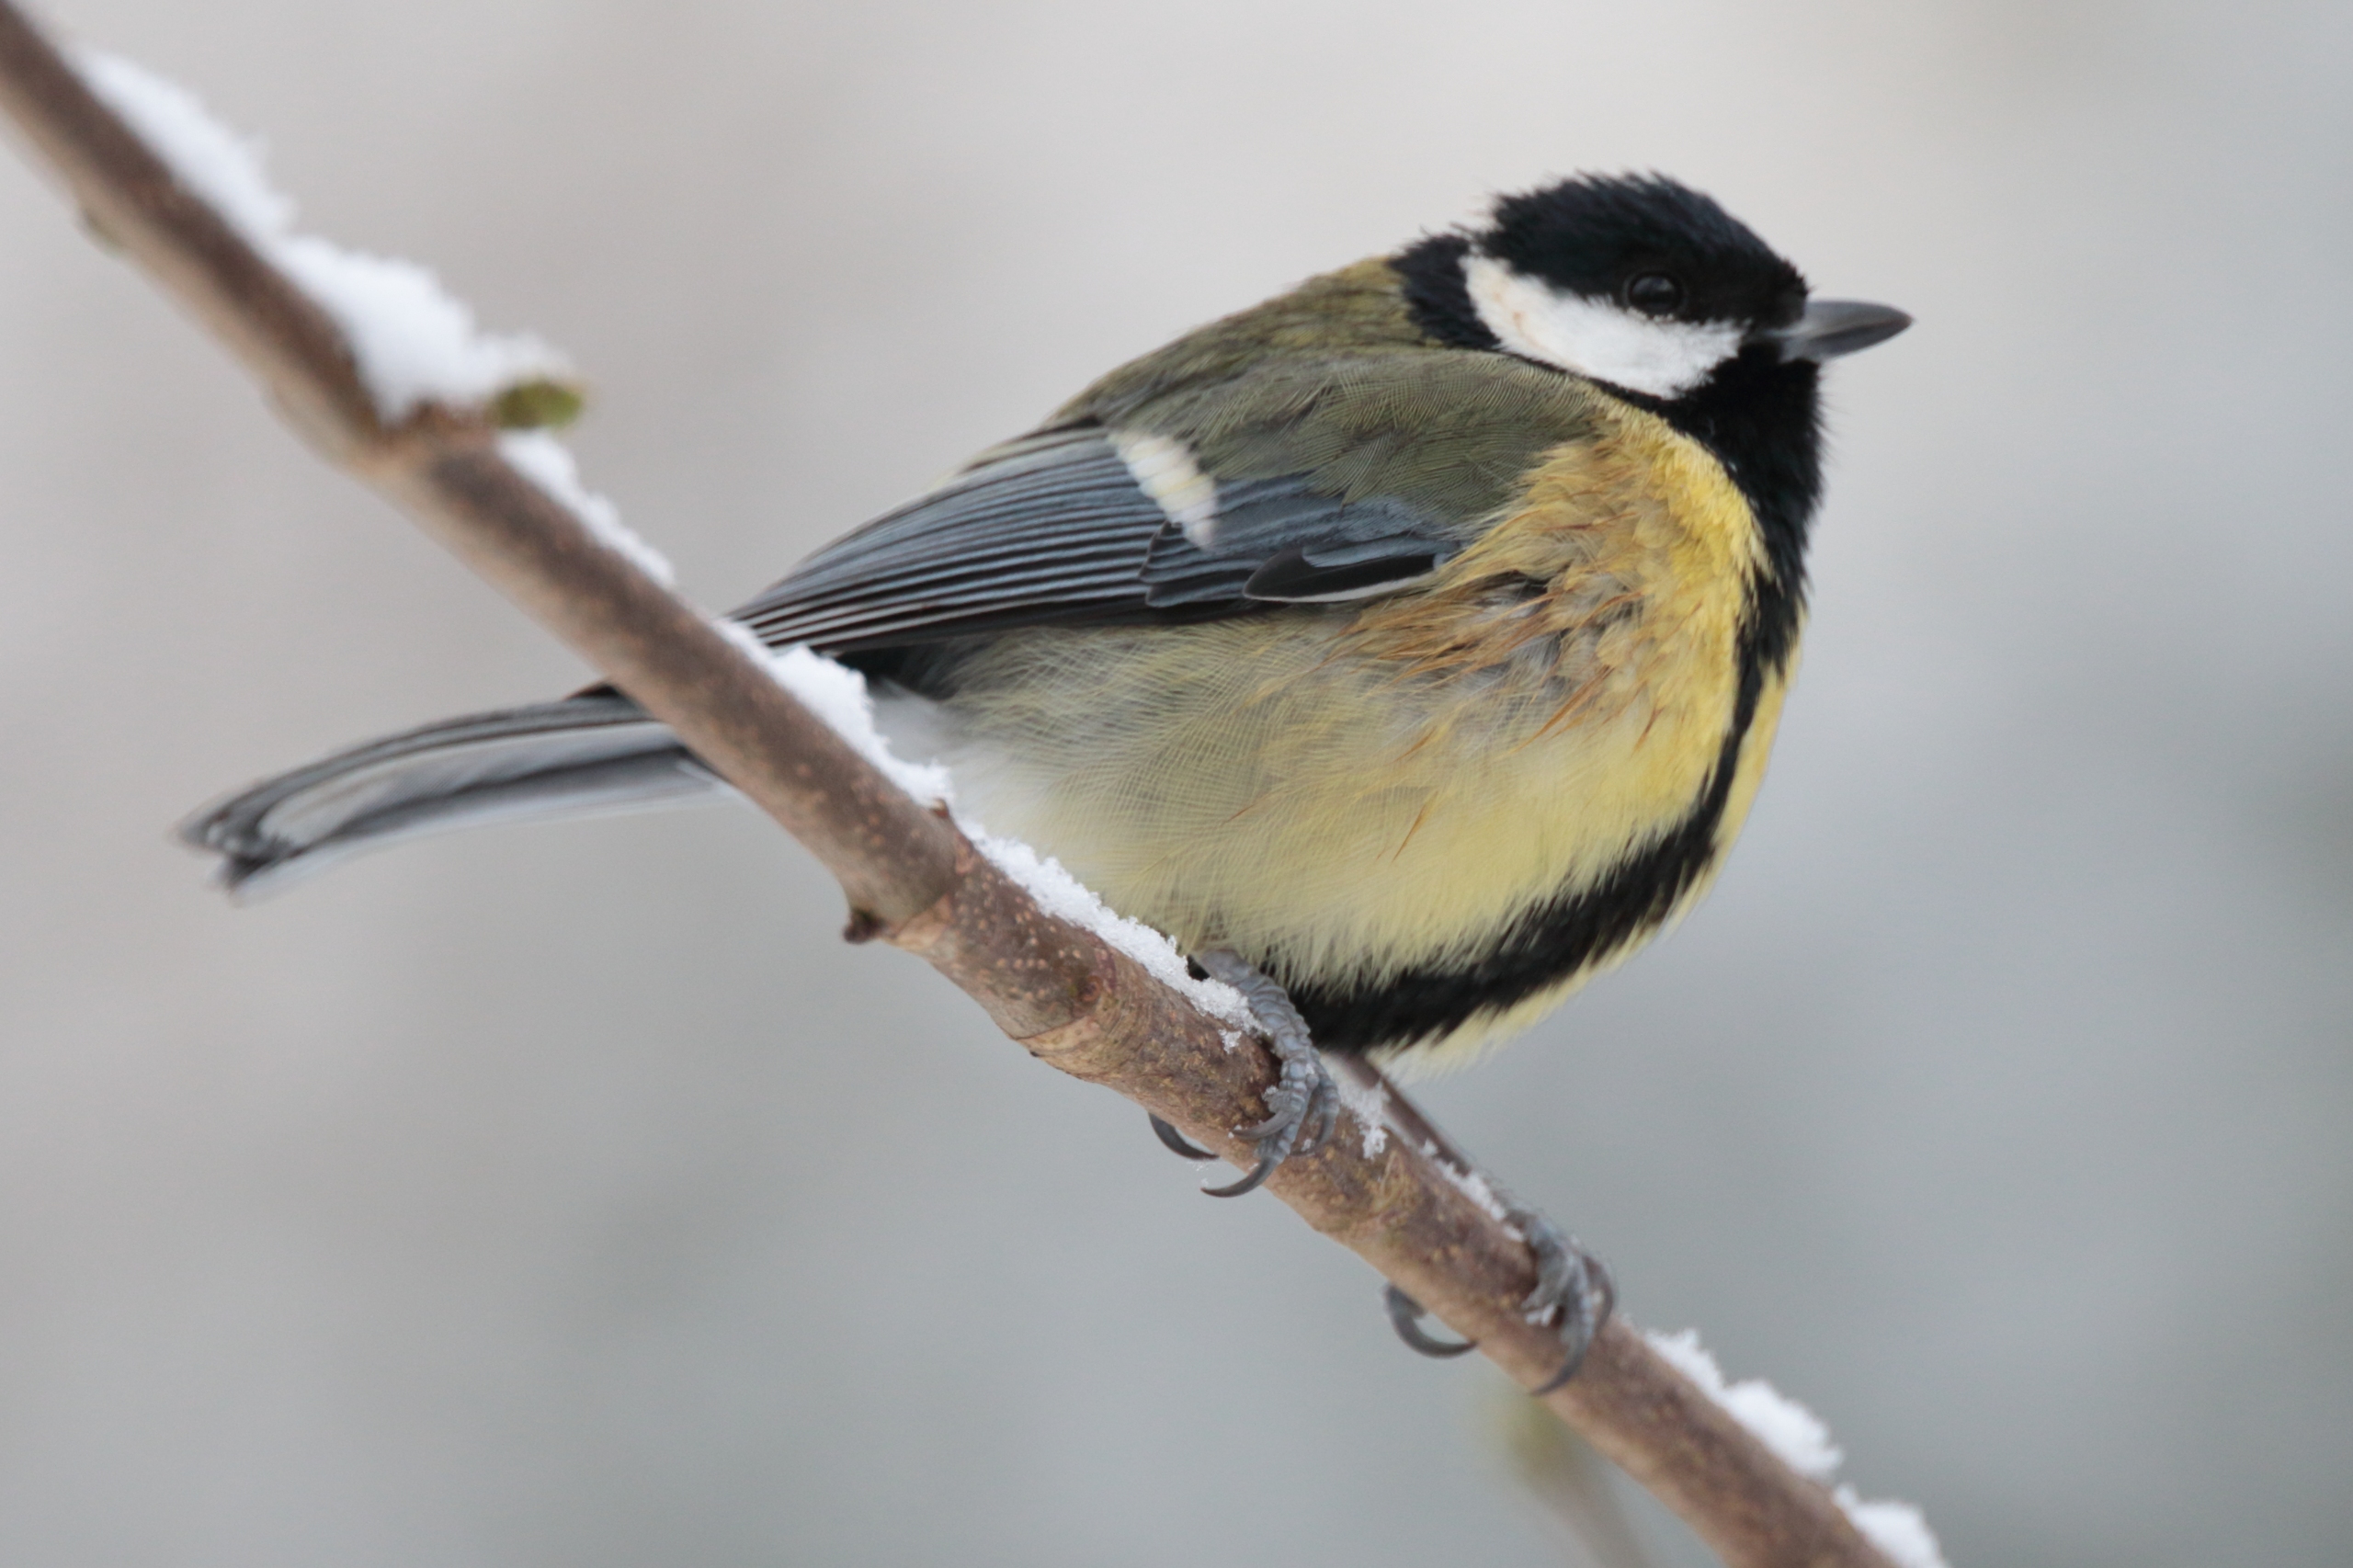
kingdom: Animalia
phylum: Chordata
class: Aves
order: Passeriformes
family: Paridae
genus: Parus
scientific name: Parus major
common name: Musvit
